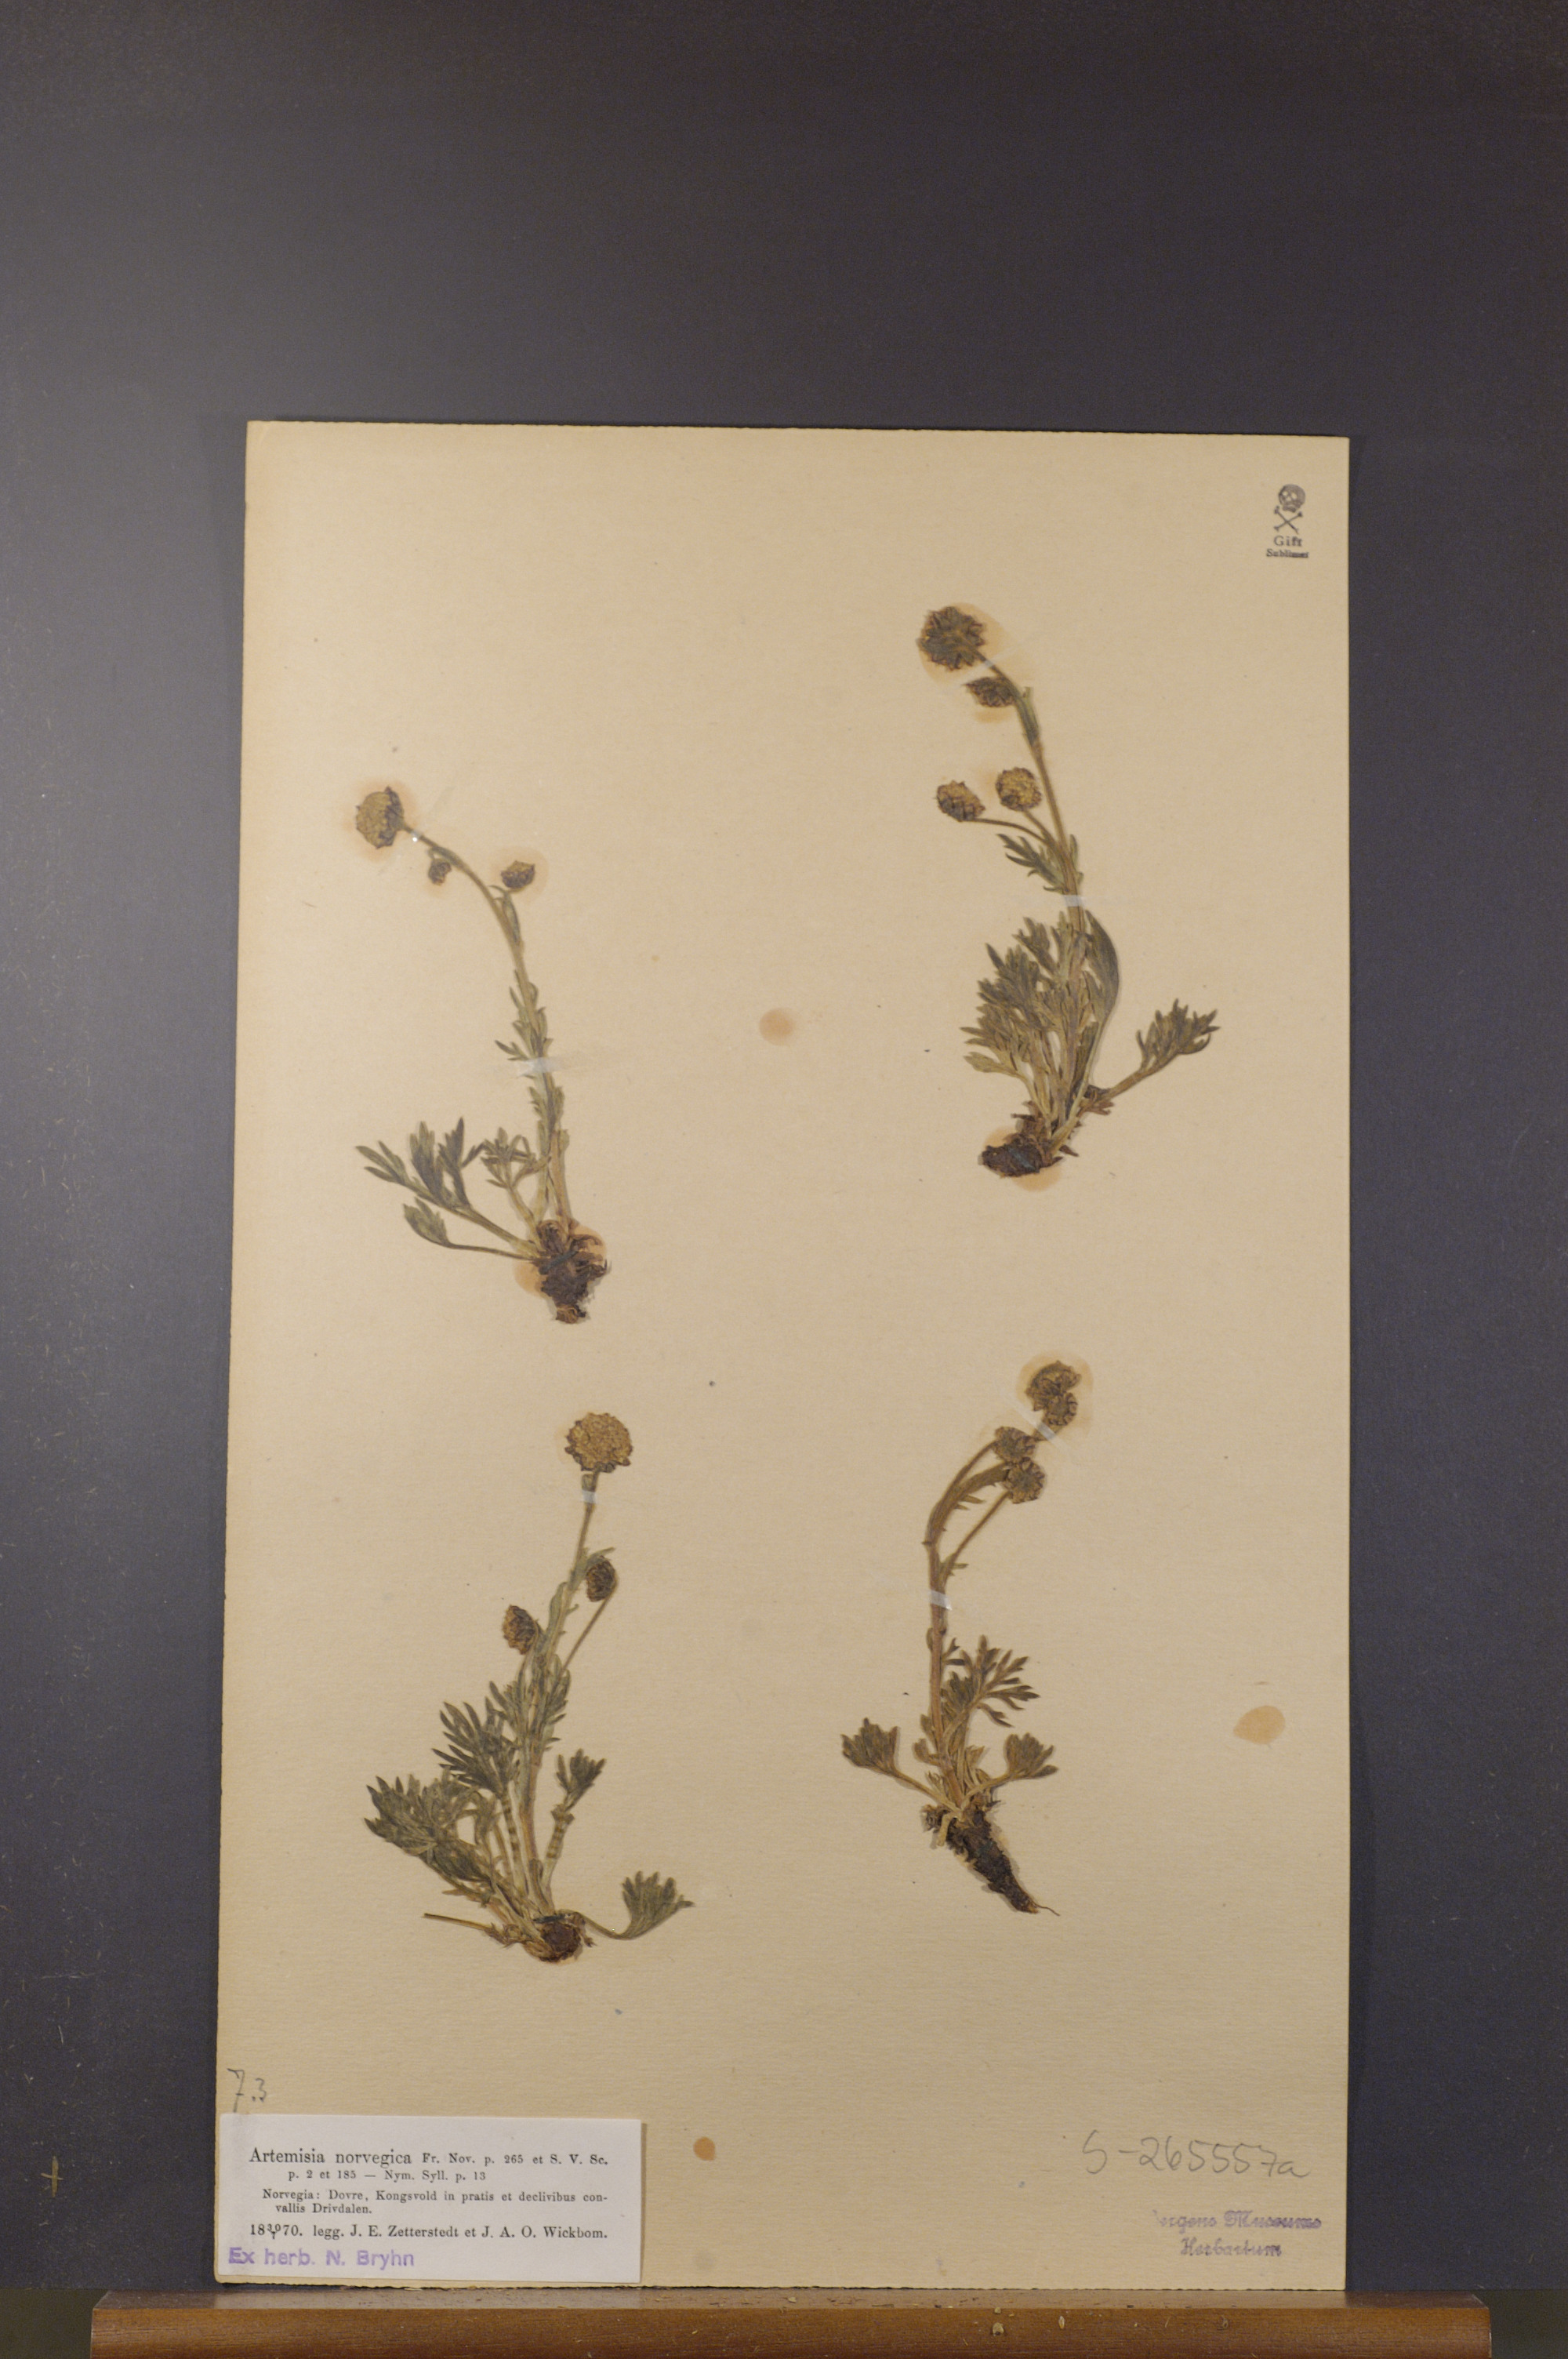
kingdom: Plantae
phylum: Tracheophyta
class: Magnoliopsida
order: Asterales
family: Asteraceae
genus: Artemisia
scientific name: Artemisia norvegica
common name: Norwegian mugwort
